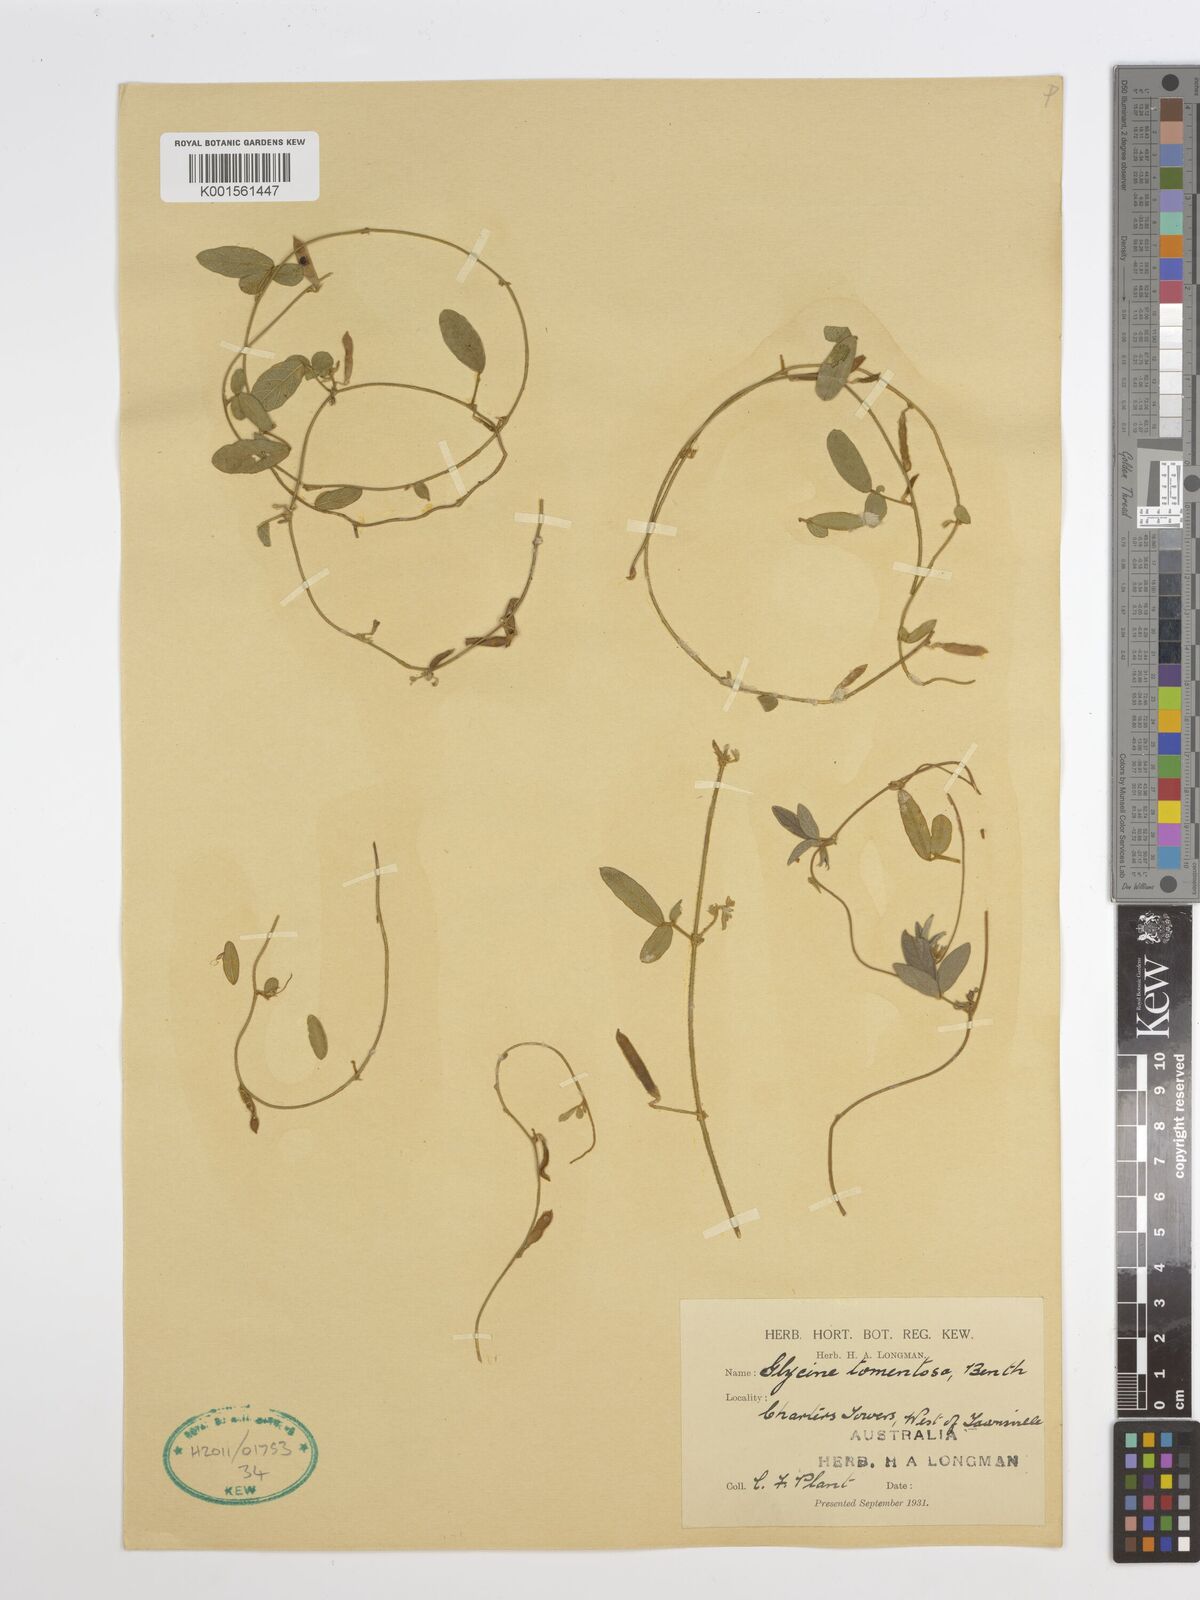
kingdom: Plantae
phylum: Tracheophyta
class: Magnoliopsida
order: Fabales
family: Fabaceae
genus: Glycine
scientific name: Glycine tomentella
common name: Hairy glycine
